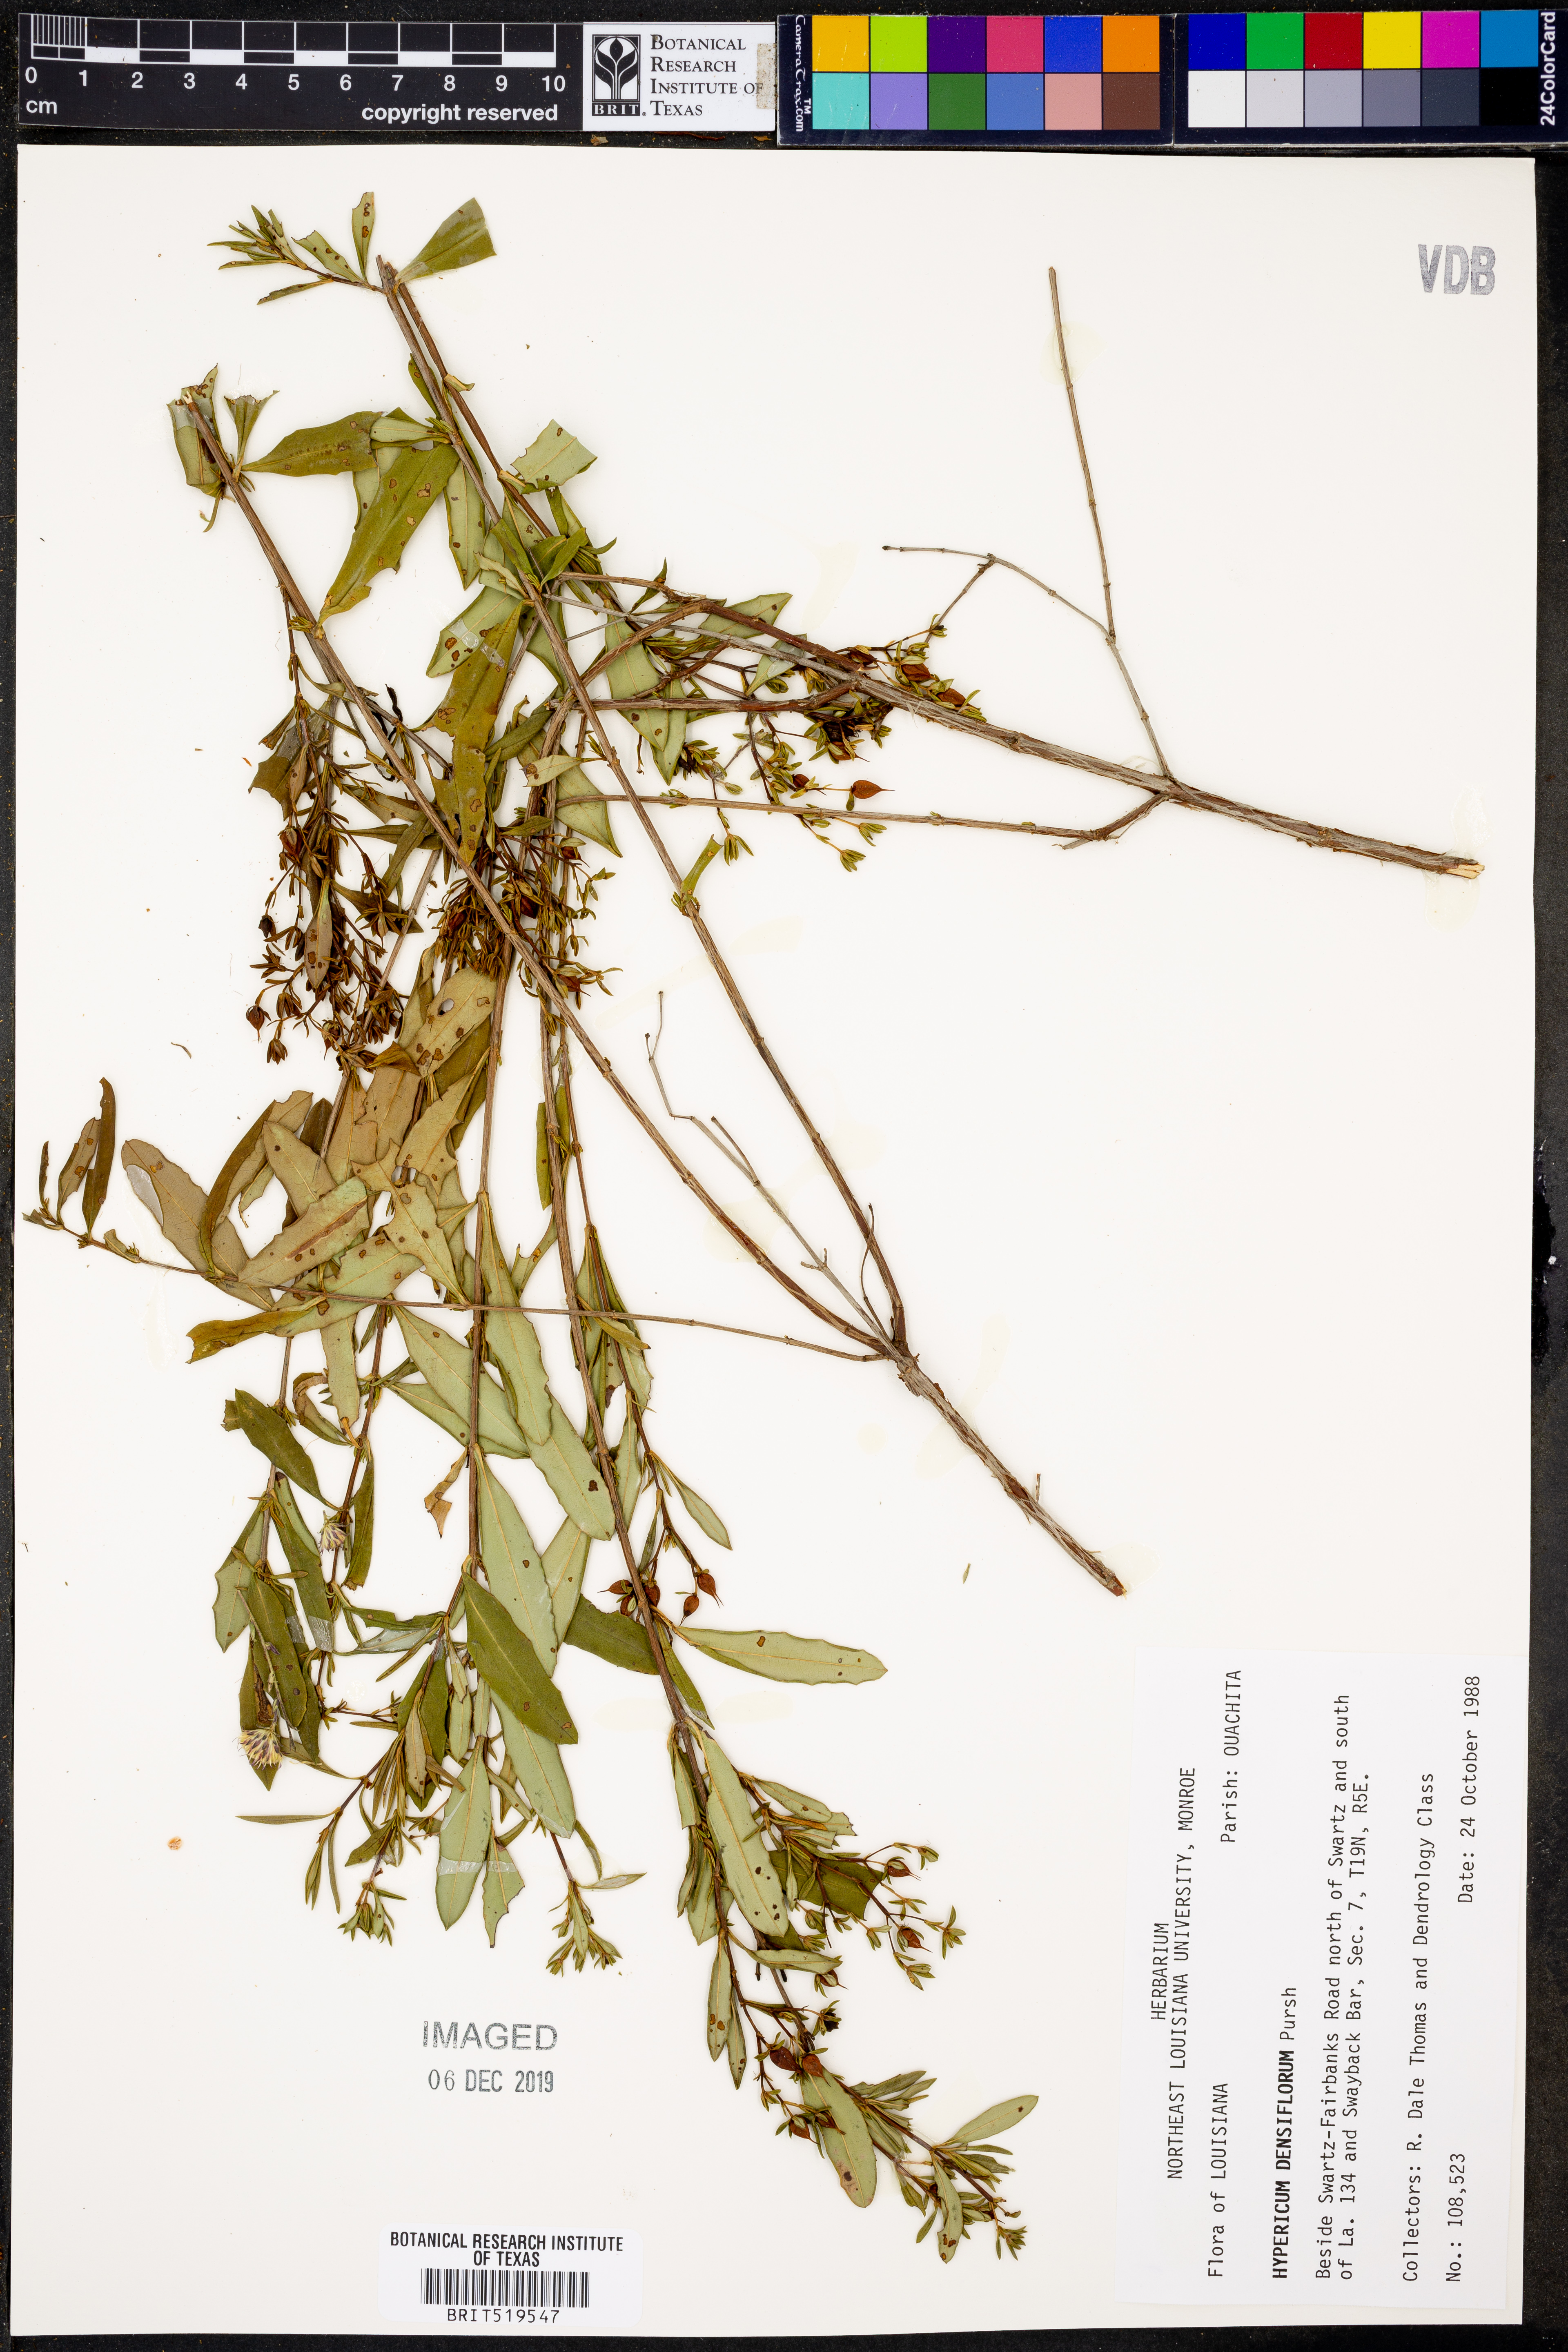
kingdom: Plantae
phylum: Tracheophyta
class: Magnoliopsida
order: Malpighiales
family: Hypericaceae
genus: Hypericum
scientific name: Hypericum densiflorum
